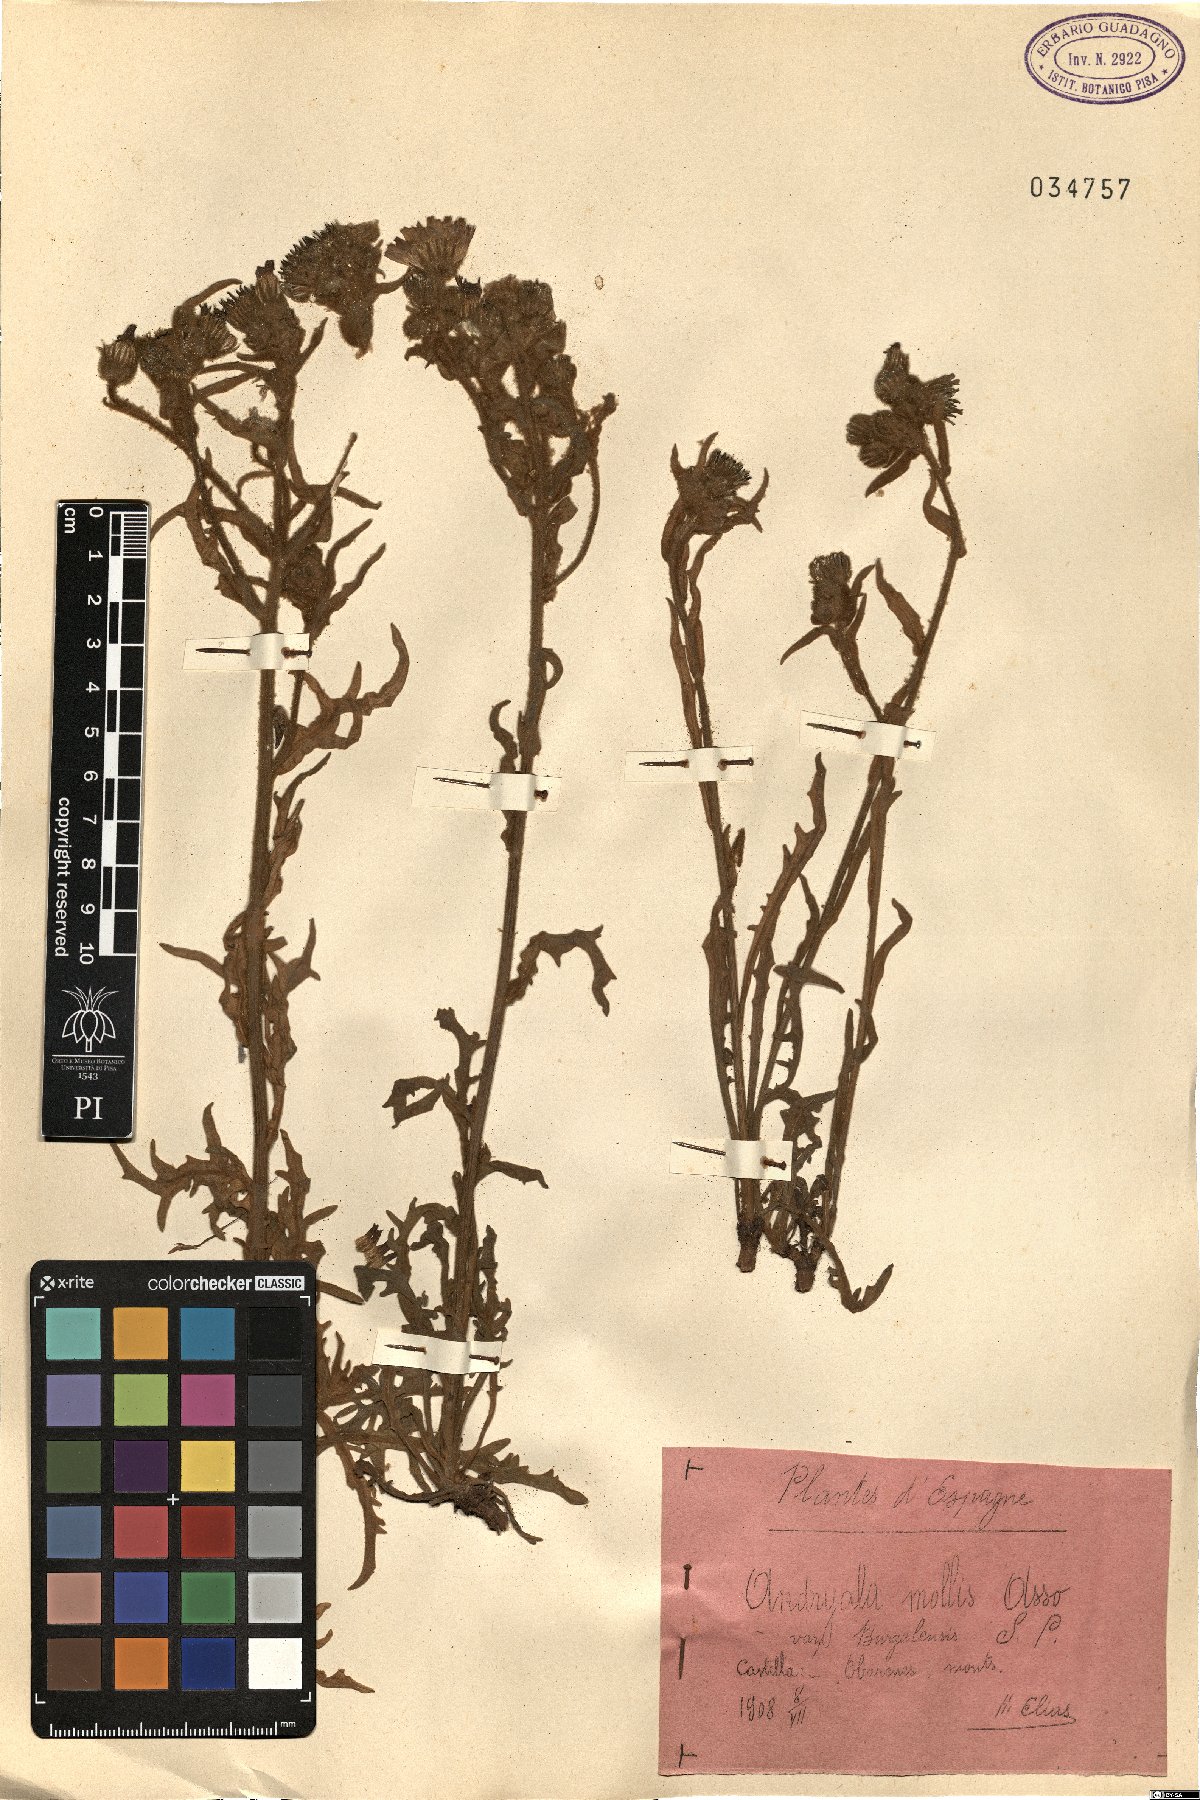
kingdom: Plantae
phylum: Tracheophyta
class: Magnoliopsida
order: Asterales
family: Asteraceae
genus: Andryala
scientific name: Andryala integrifolia
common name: Common andryala
